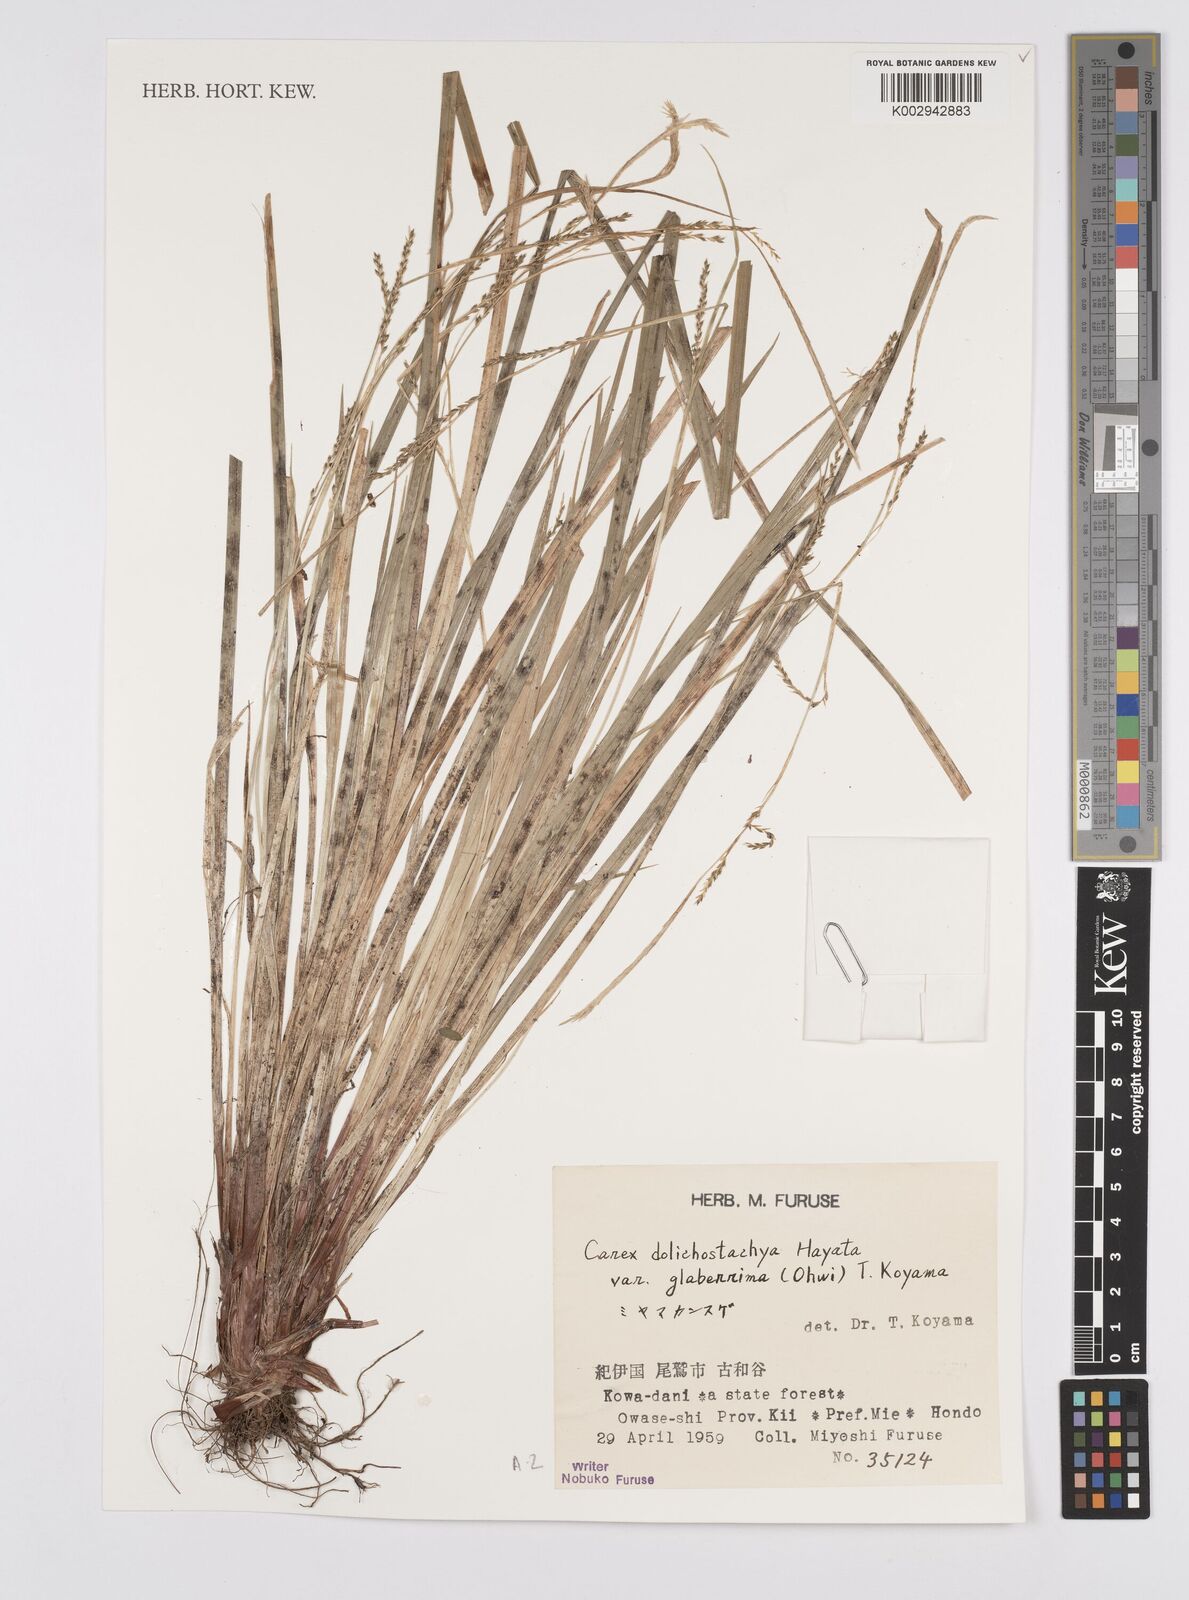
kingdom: Plantae
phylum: Tracheophyta
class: Liliopsida
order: Poales
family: Cyperaceae
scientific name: Cyperaceae
